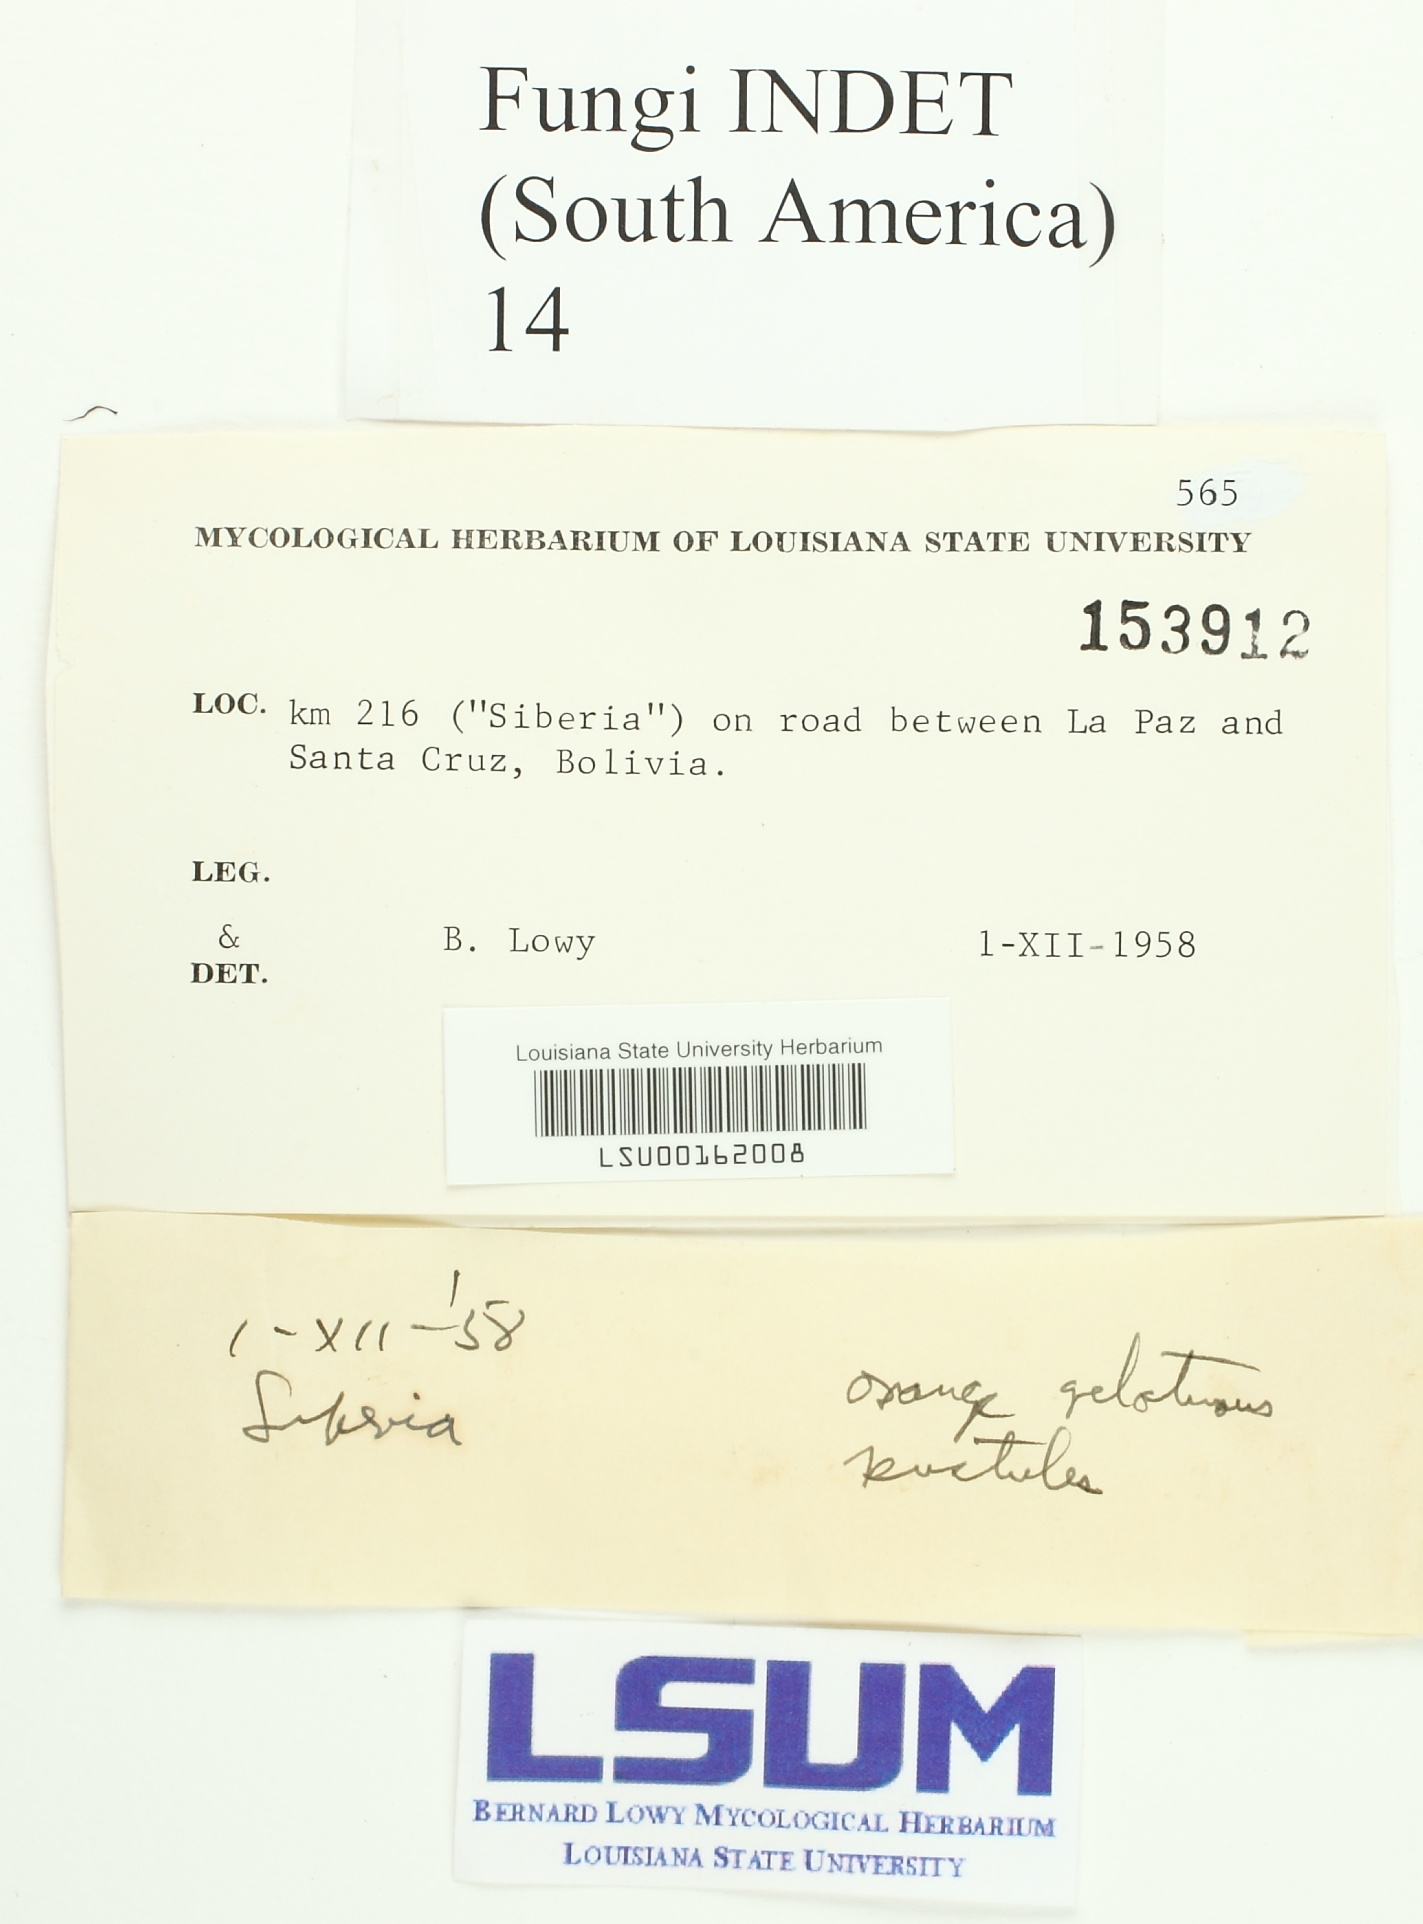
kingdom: Fungi
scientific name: Fungi
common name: Fungi
